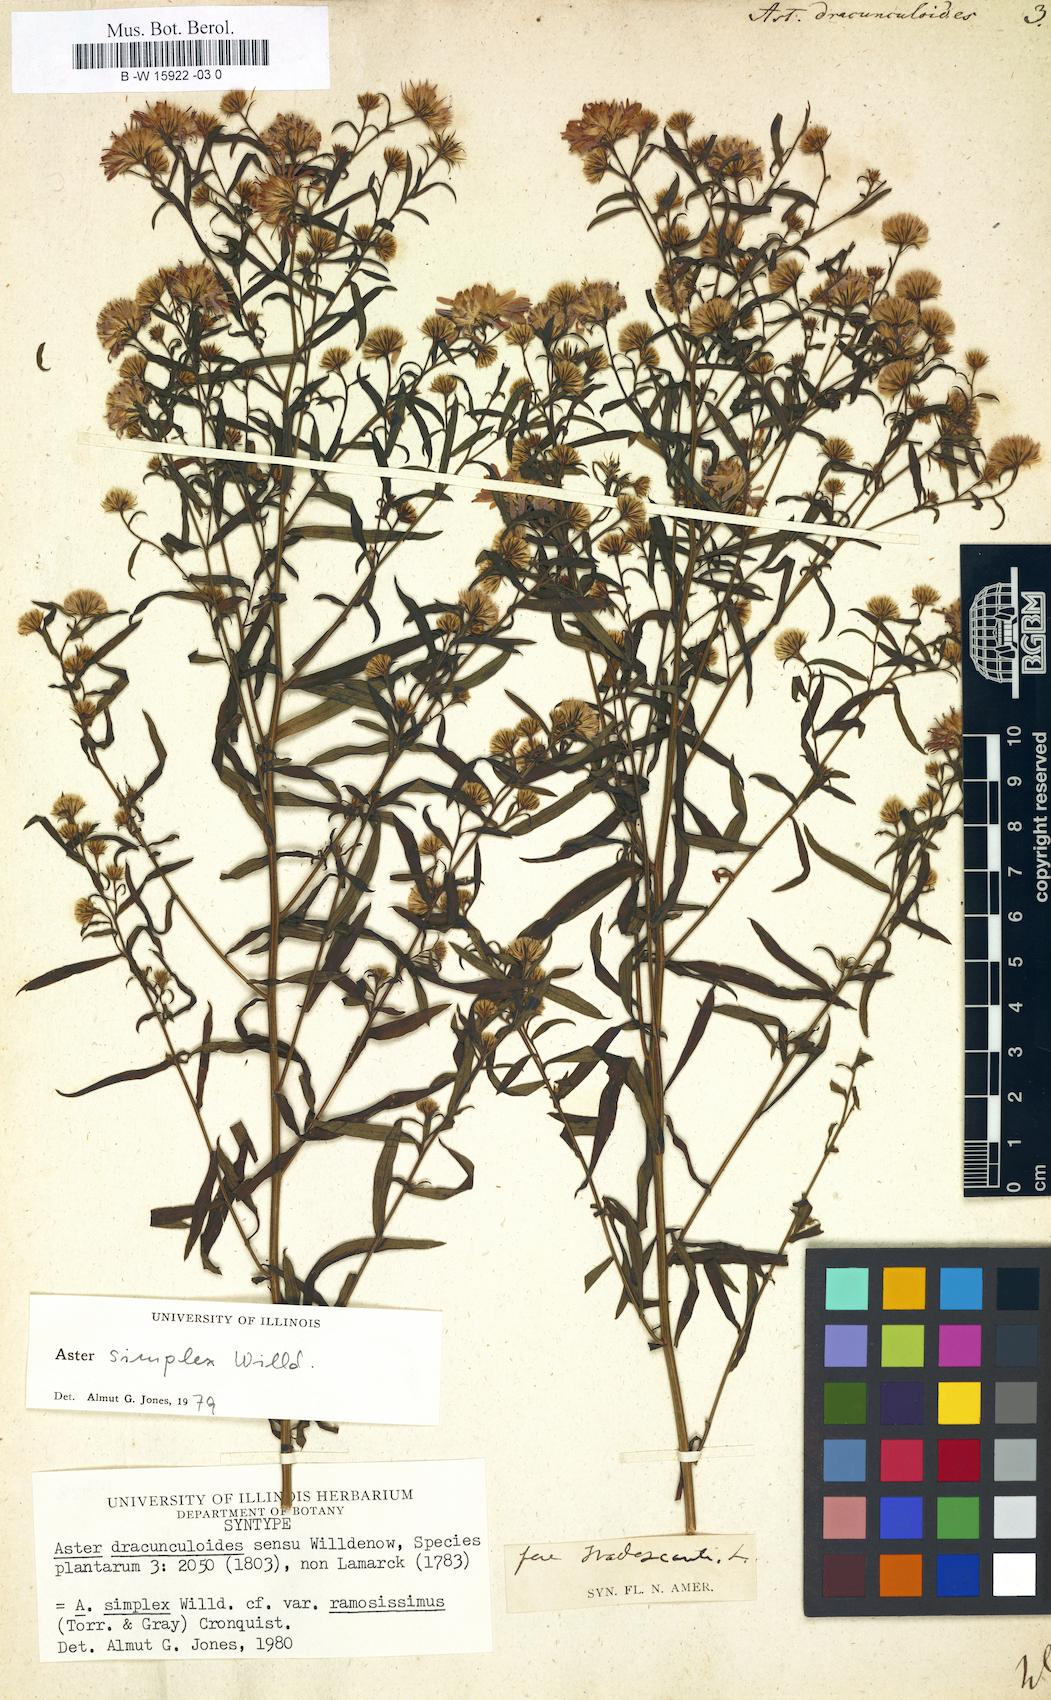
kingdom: Plantae
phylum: Tracheophyta
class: Magnoliopsida
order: Asterales
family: Asteraceae
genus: Aster
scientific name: Aster dracunculoides
